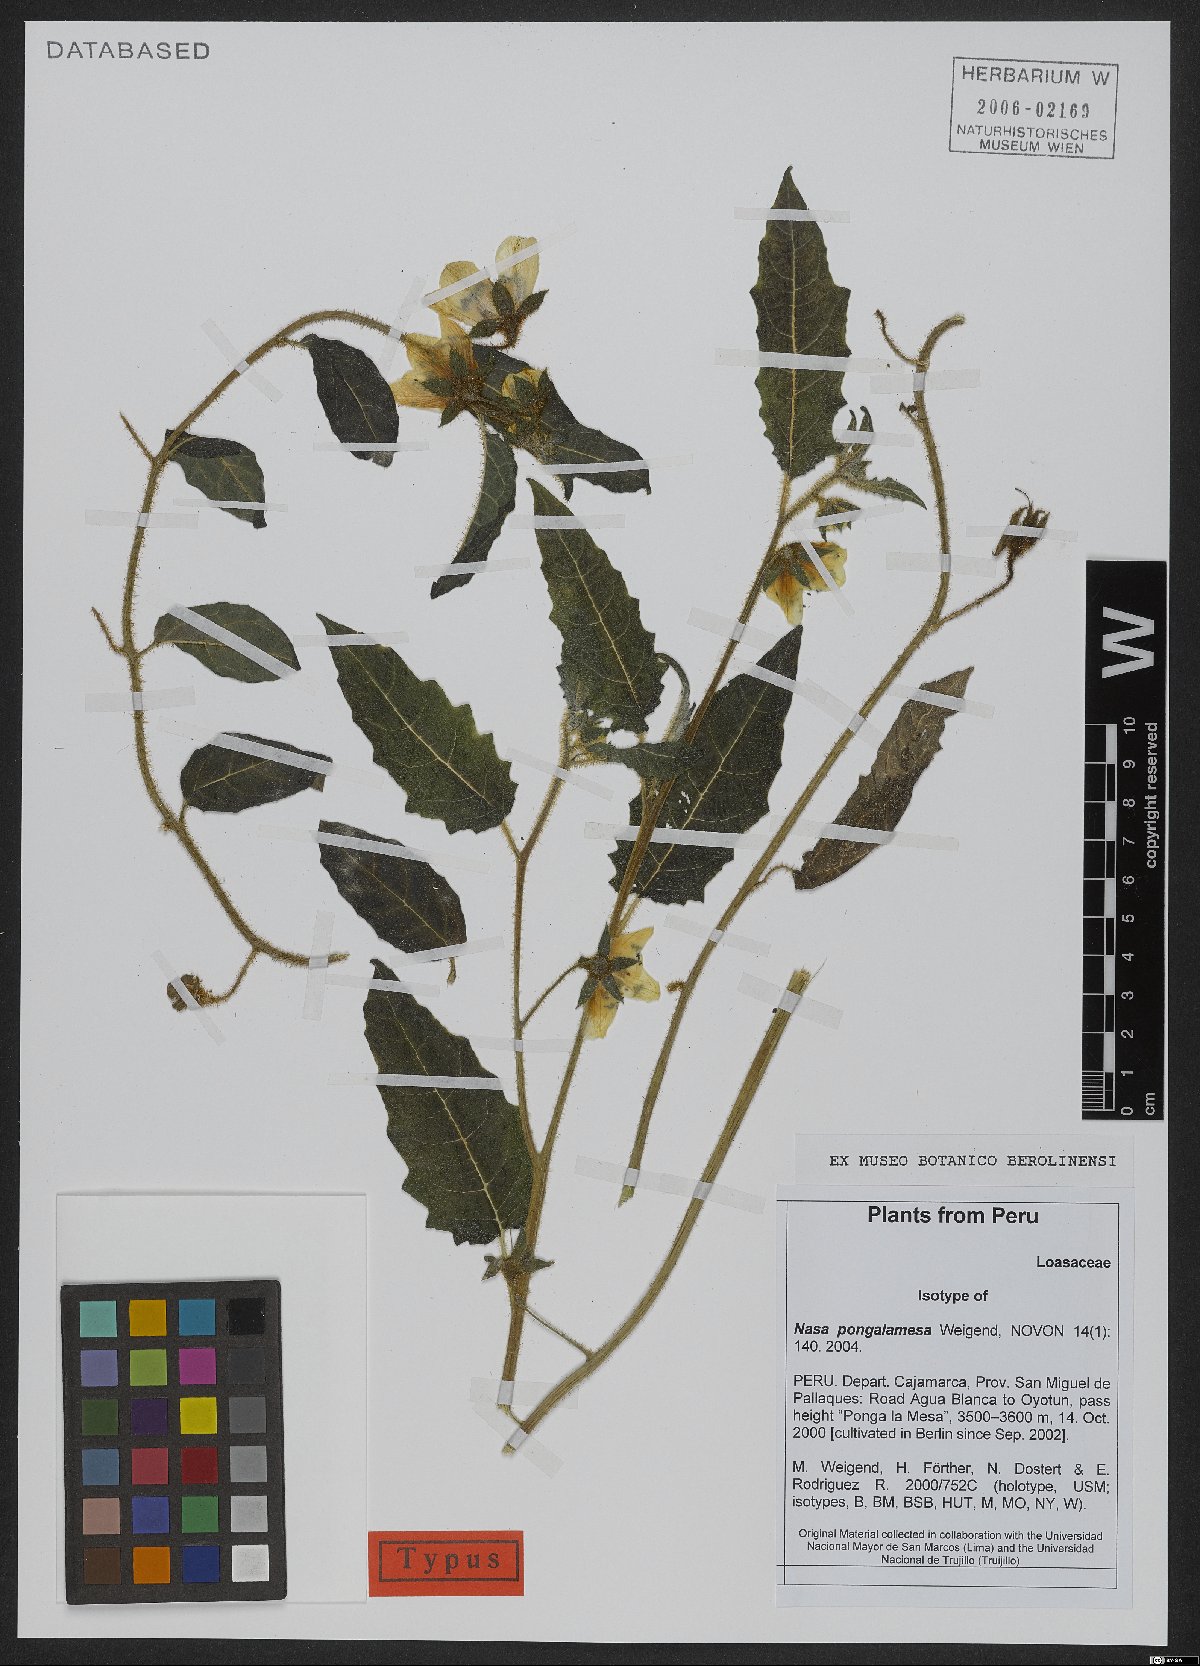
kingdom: Plantae
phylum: Tracheophyta
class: Magnoliopsida
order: Cornales
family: Loasaceae
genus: Nasa
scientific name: Nasa pongalamesa
